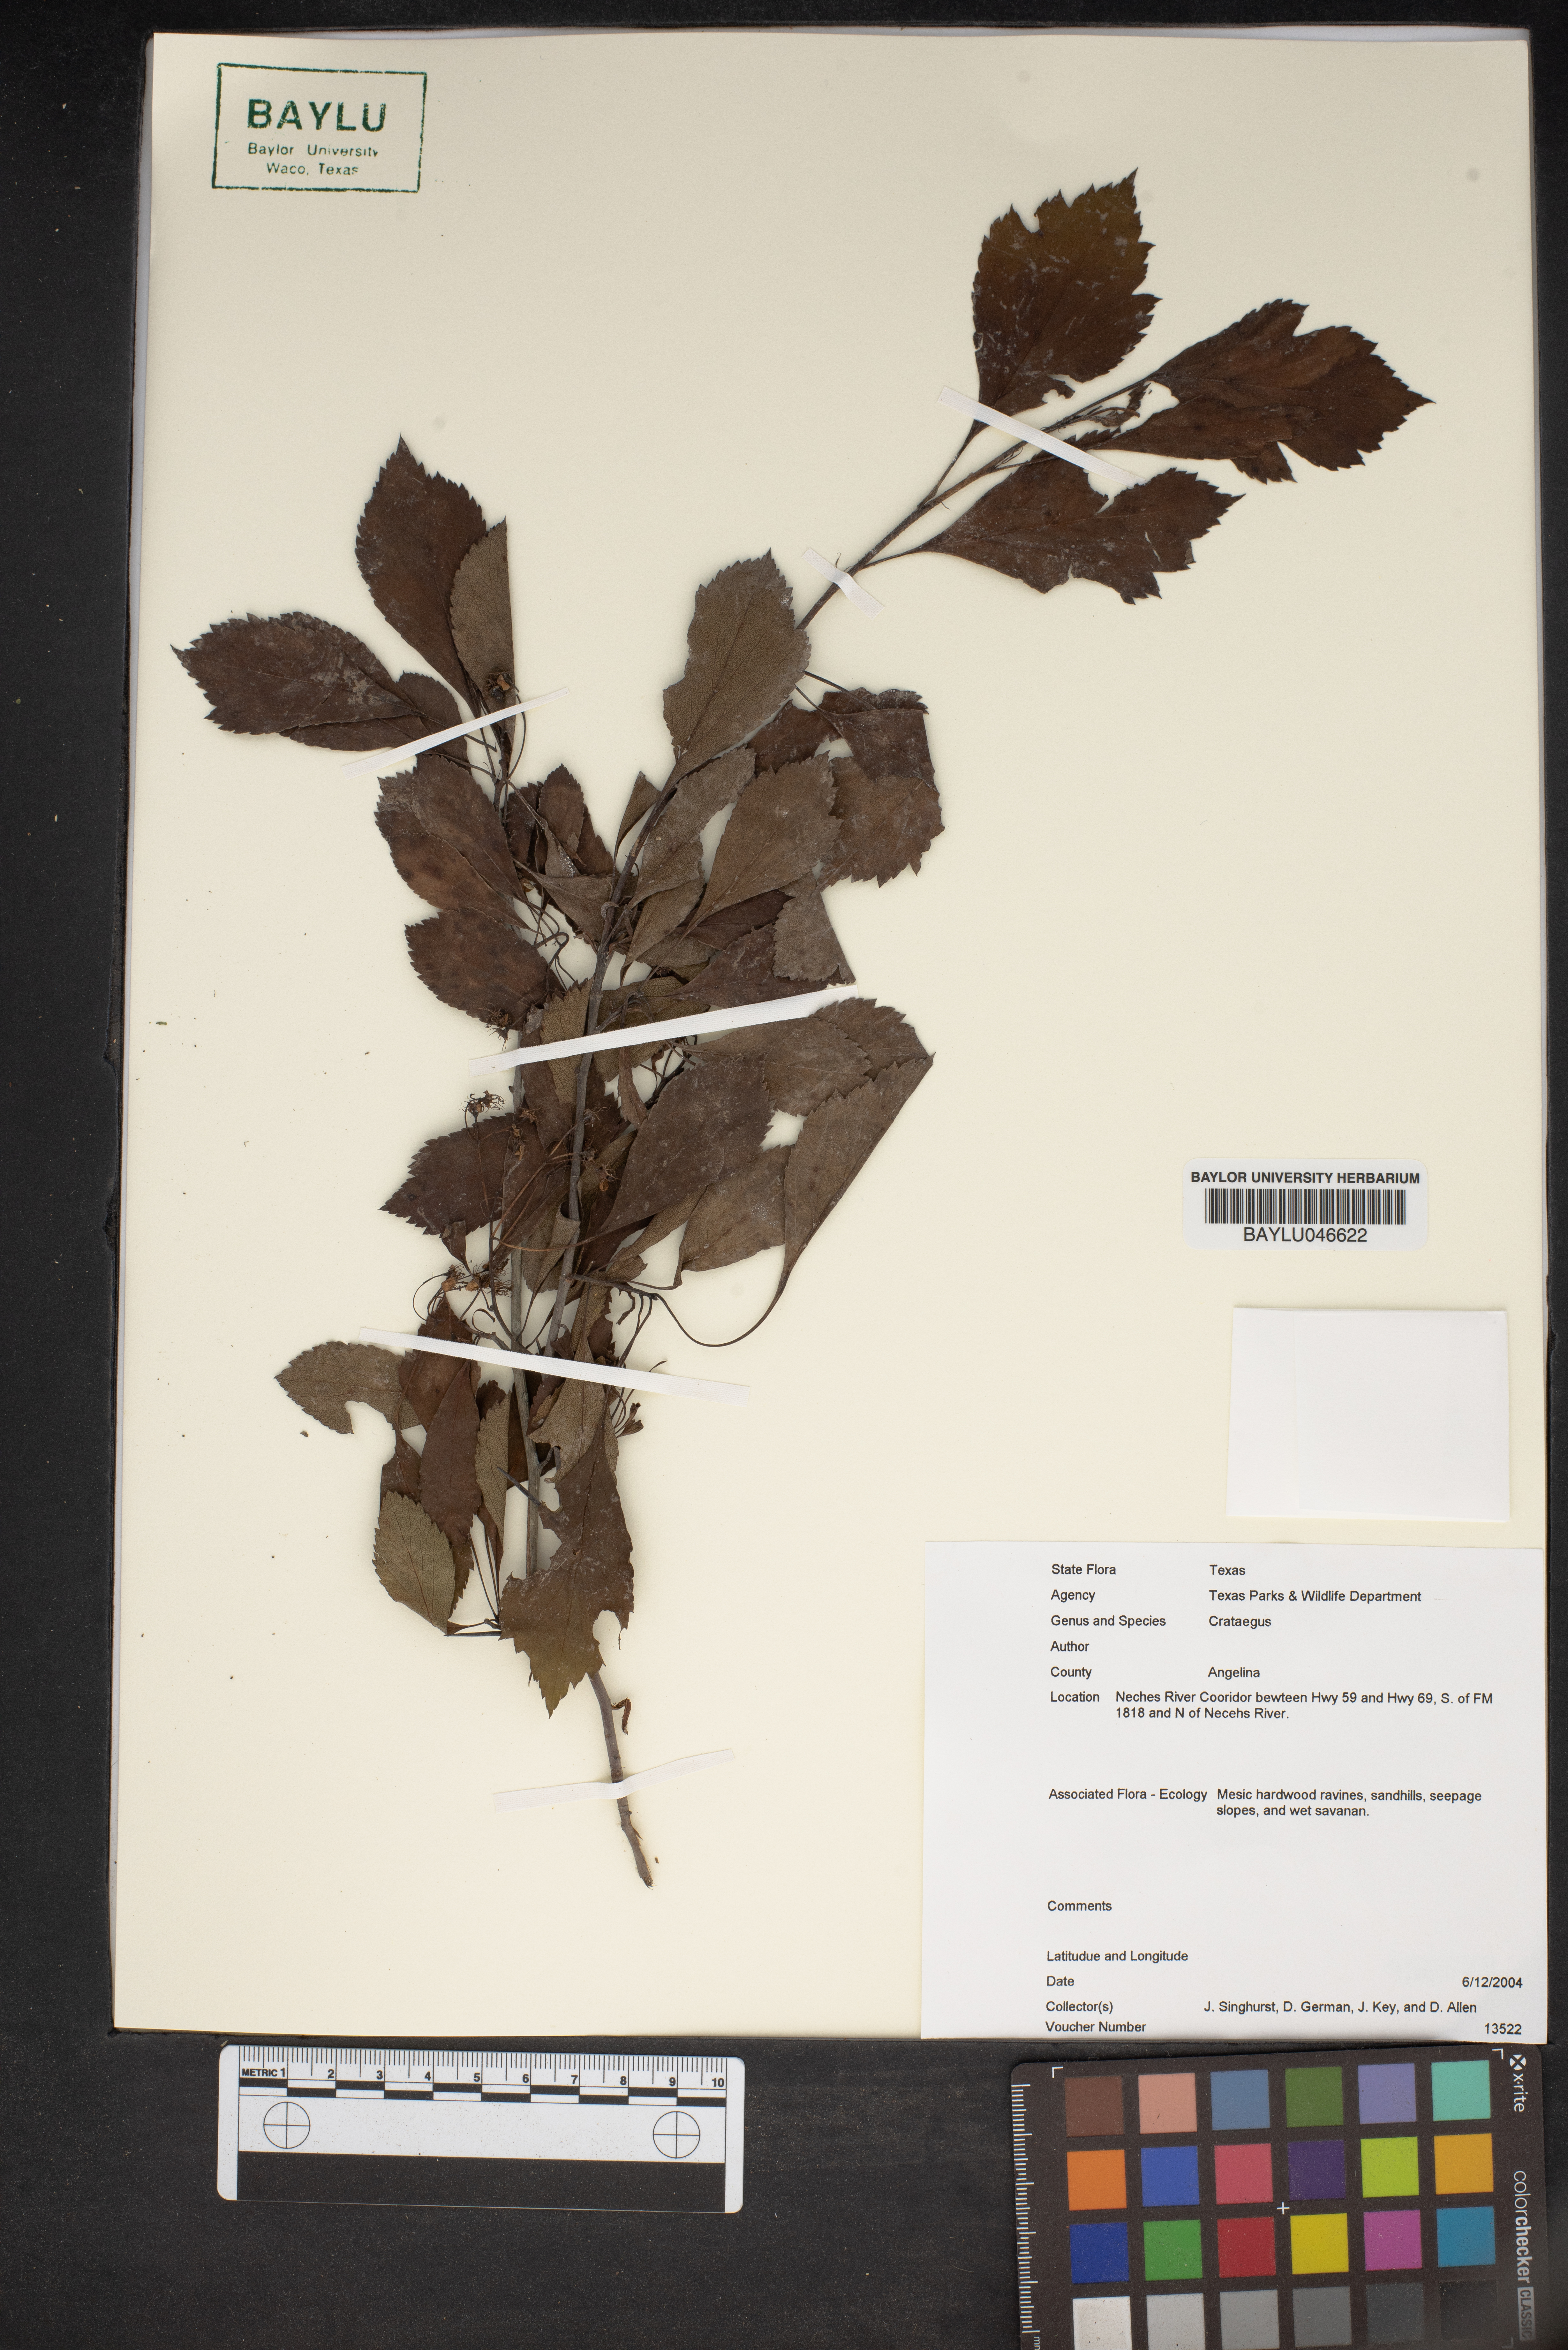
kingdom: Plantae
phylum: Tracheophyta
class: Magnoliopsida
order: Rosales
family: Rosaceae
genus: Crataegus
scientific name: Crataegus
